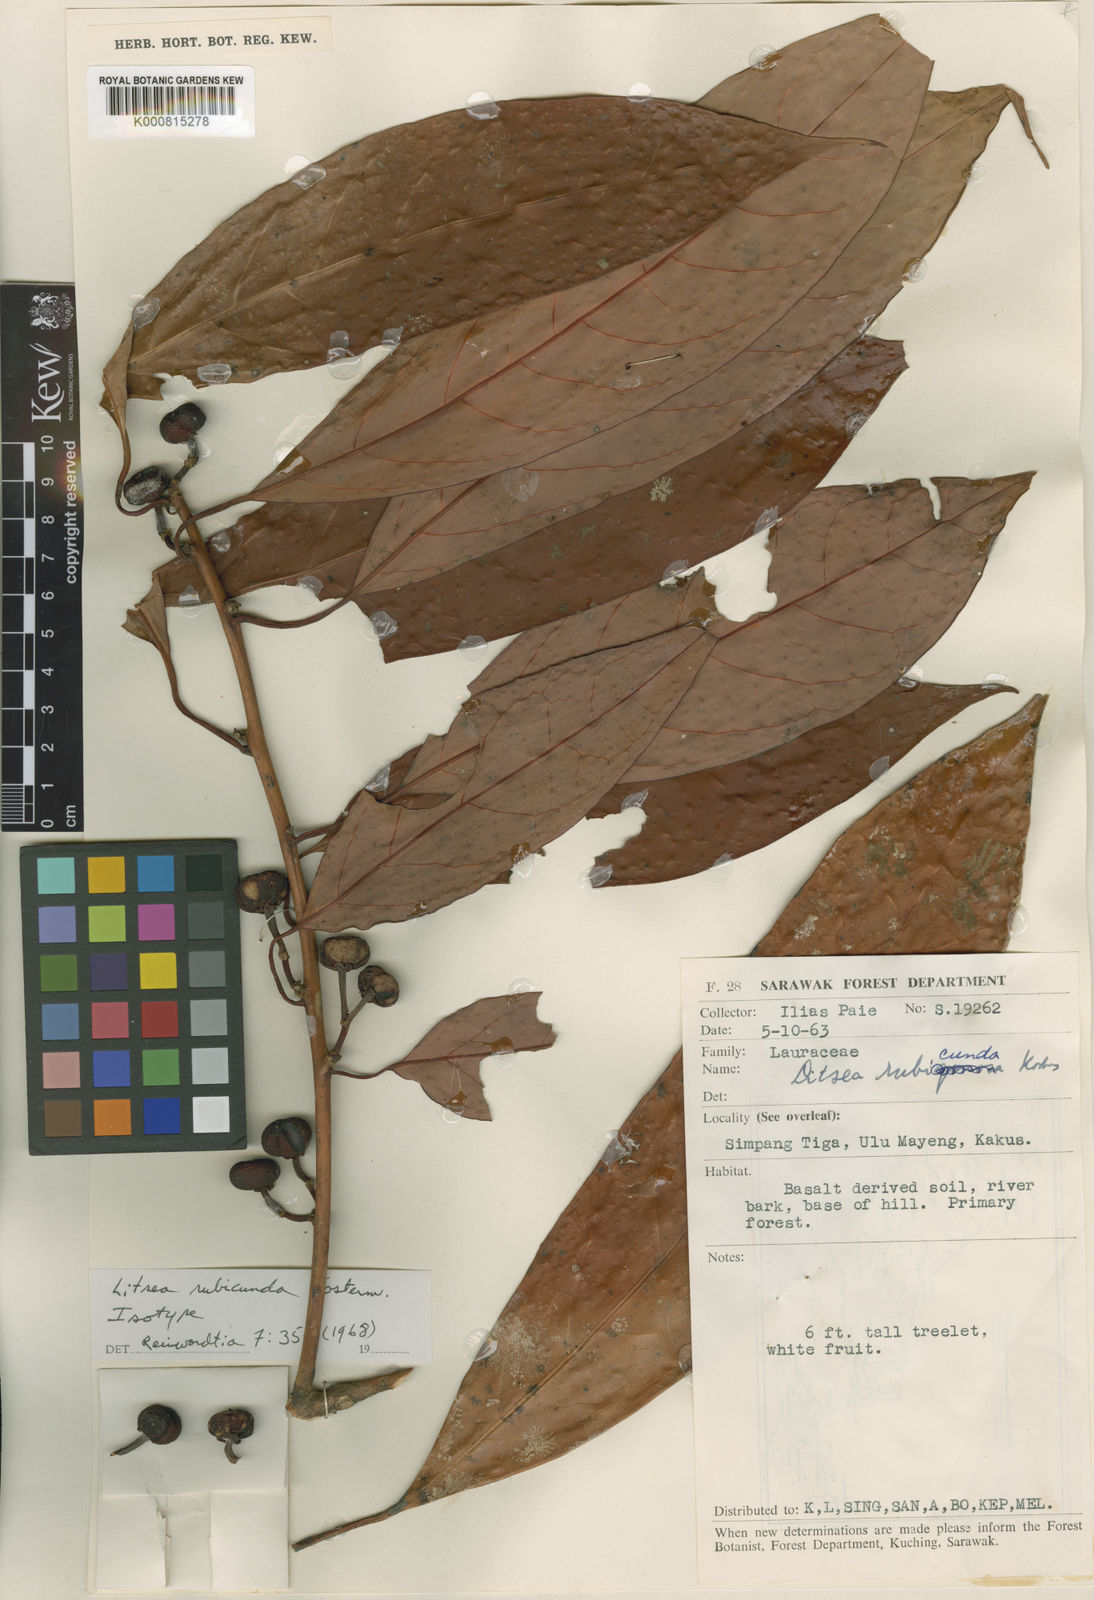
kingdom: Plantae
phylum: Tracheophyta
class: Magnoliopsida
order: Laurales
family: Lauraceae
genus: Litsea
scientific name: Litsea rubicunda
